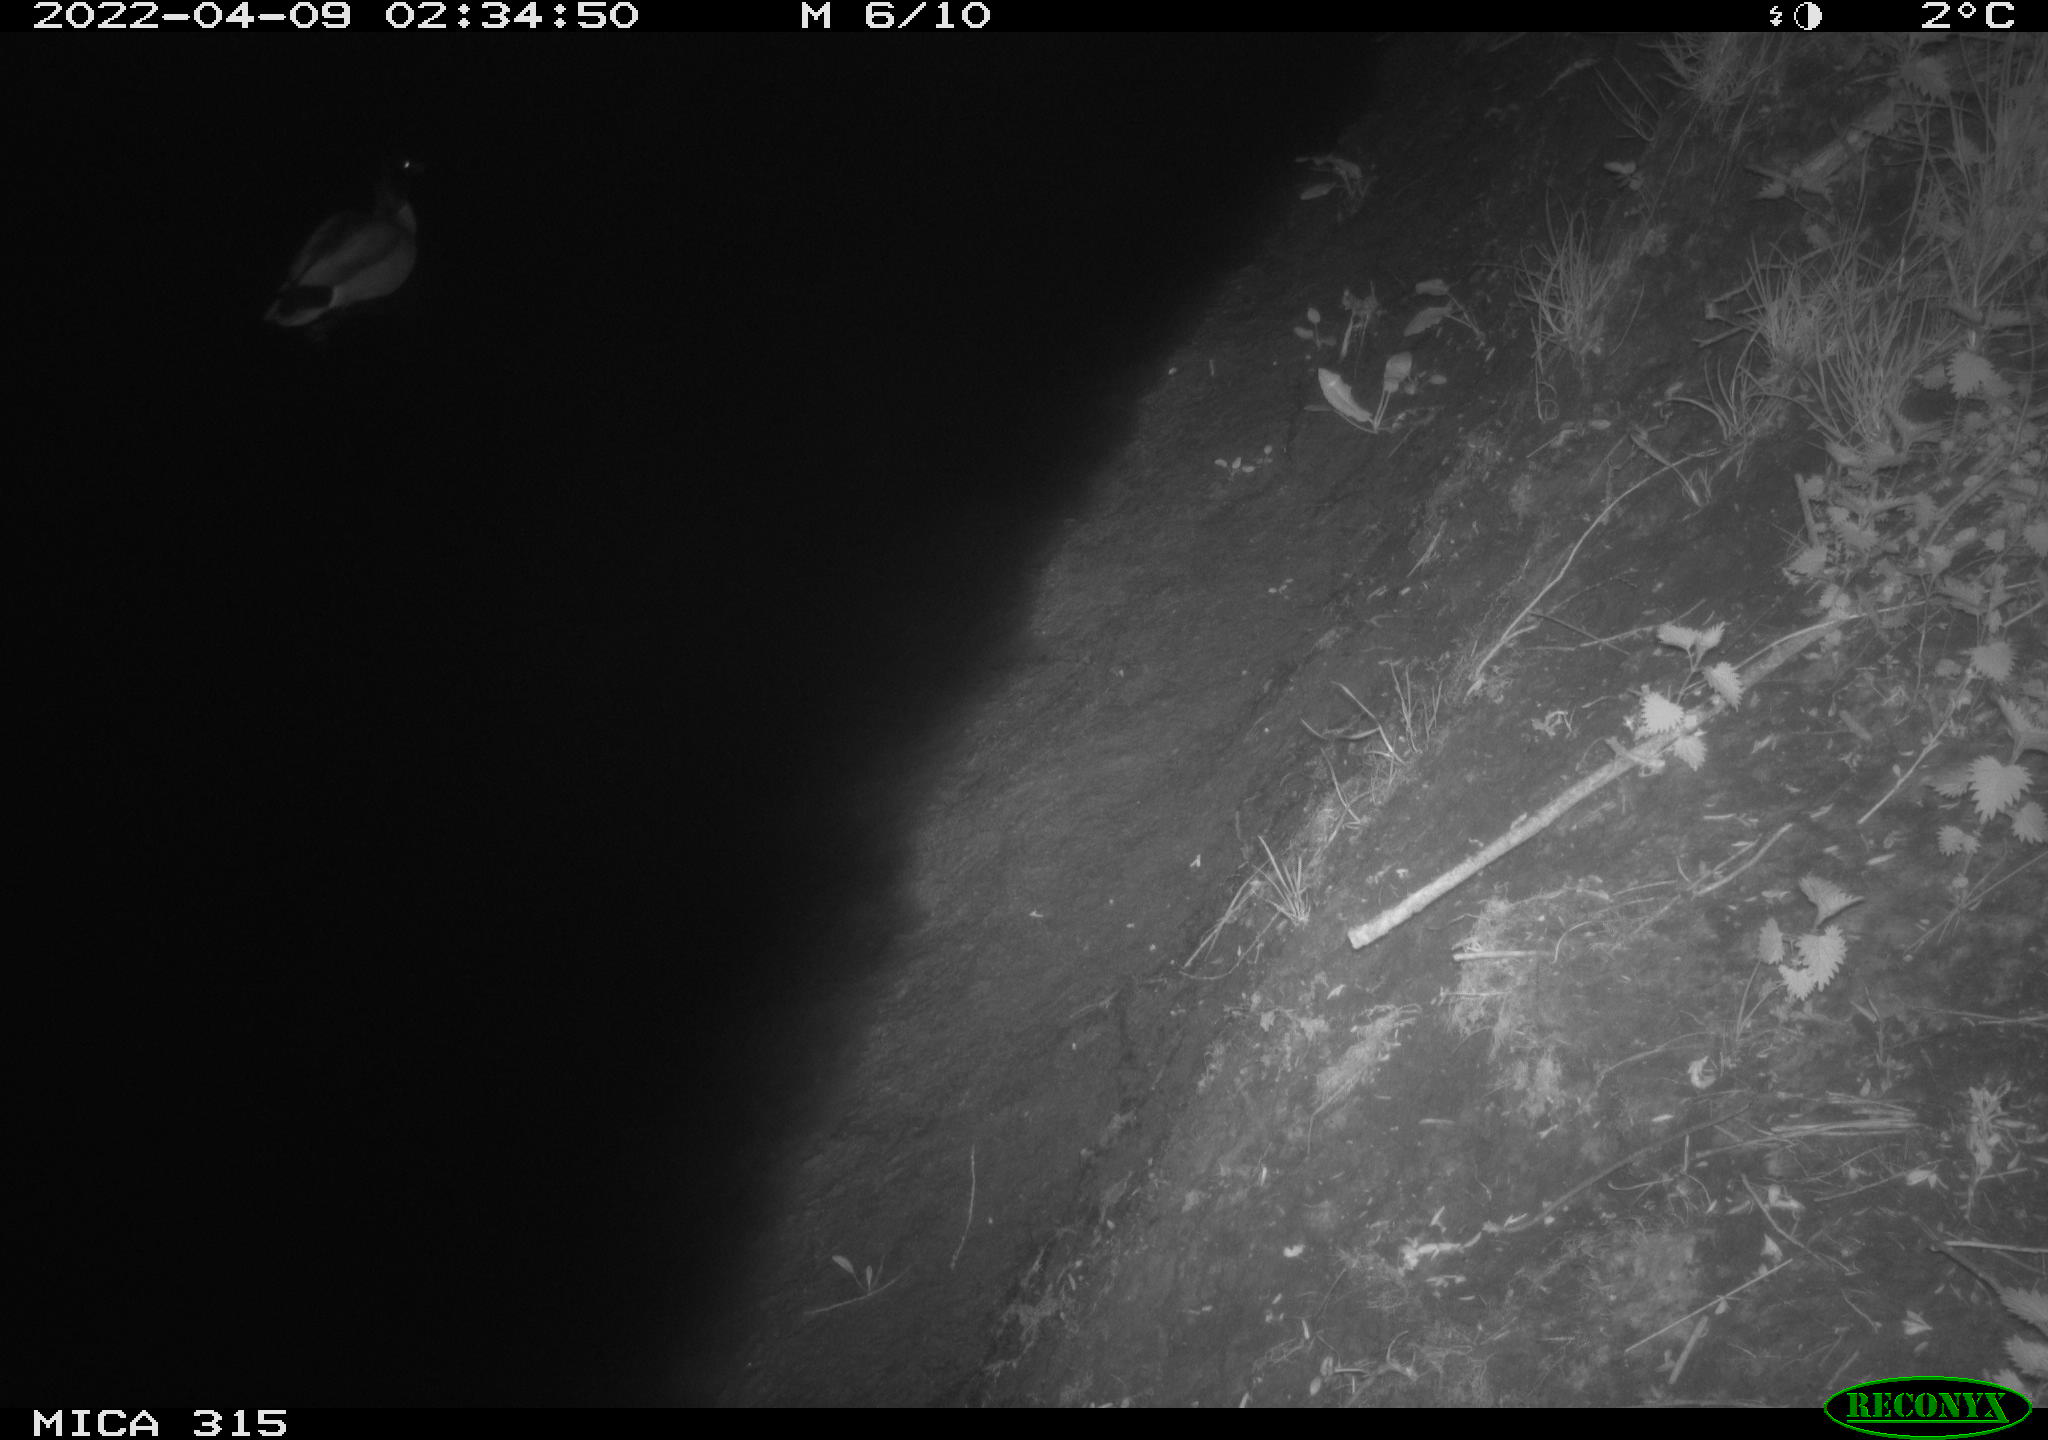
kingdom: Animalia
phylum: Chordata
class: Aves
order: Anseriformes
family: Anatidae
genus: Anas
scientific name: Anas platyrhynchos
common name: Mallard
